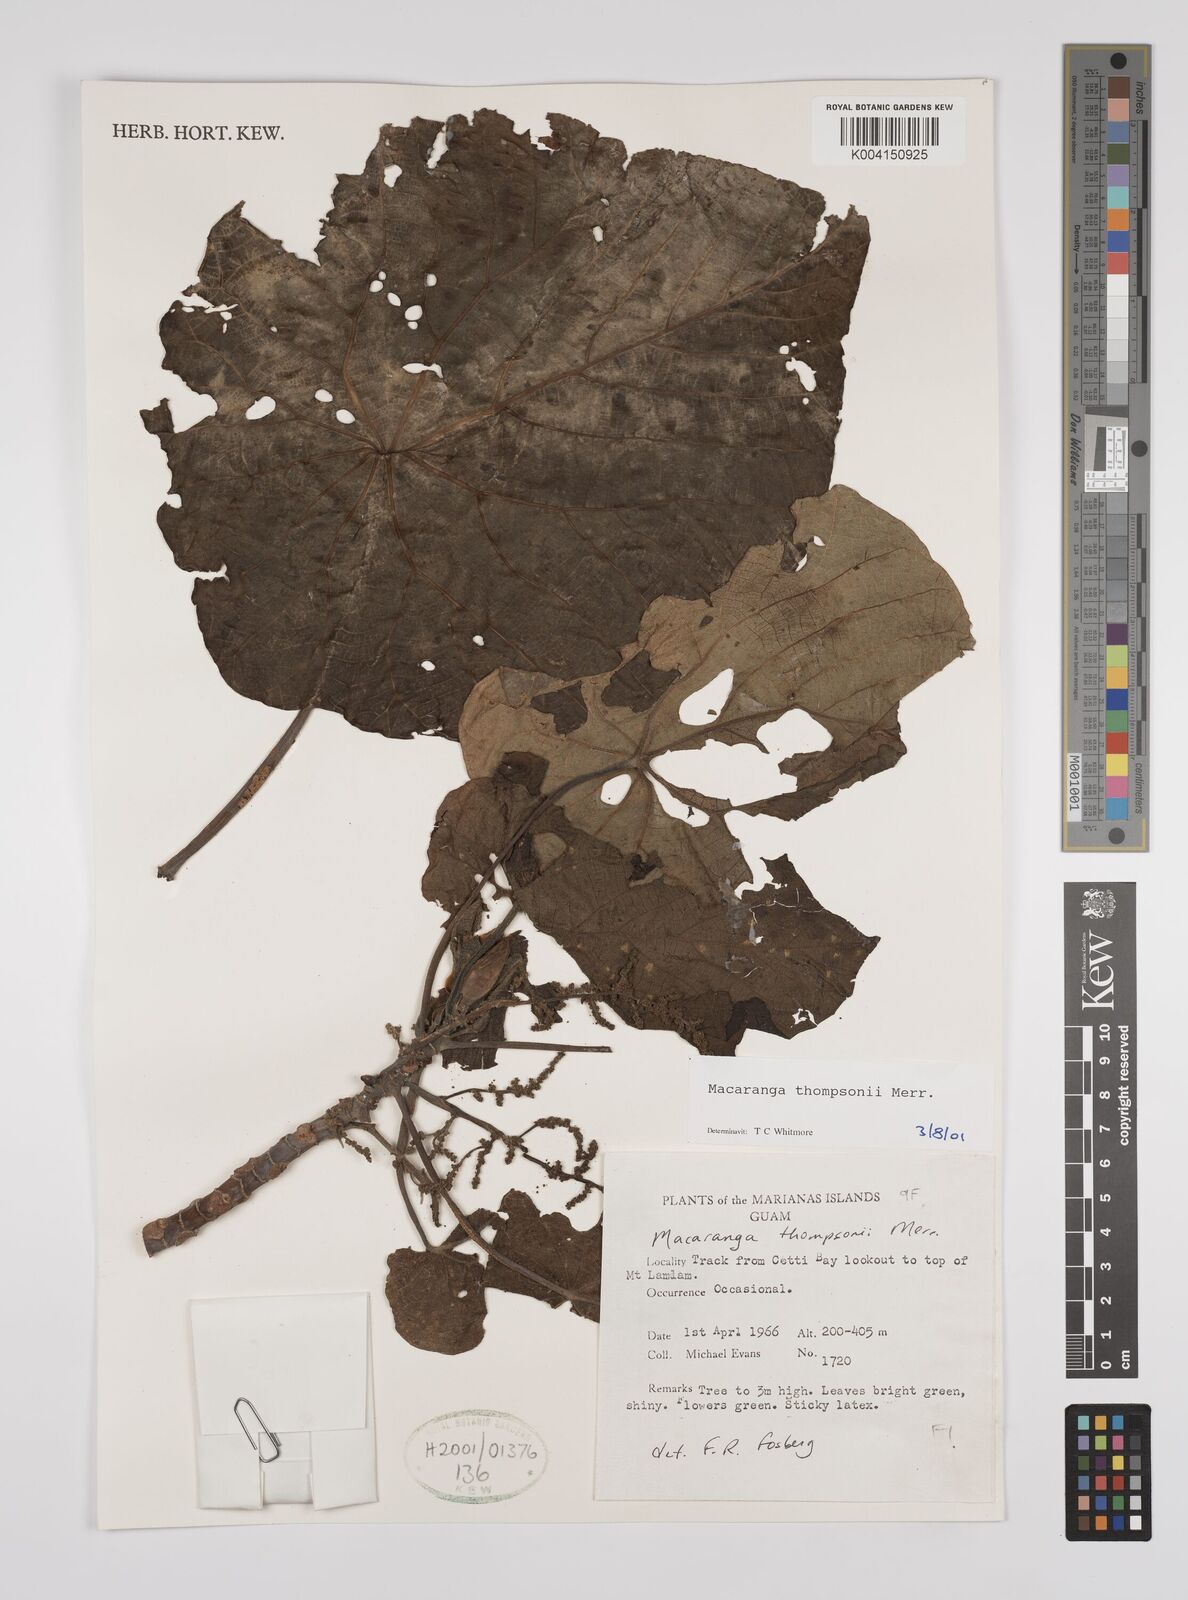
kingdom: Plantae
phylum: Tracheophyta
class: Magnoliopsida
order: Malpighiales
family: Euphorbiaceae
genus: Macaranga
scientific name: Macaranga thompsonii
